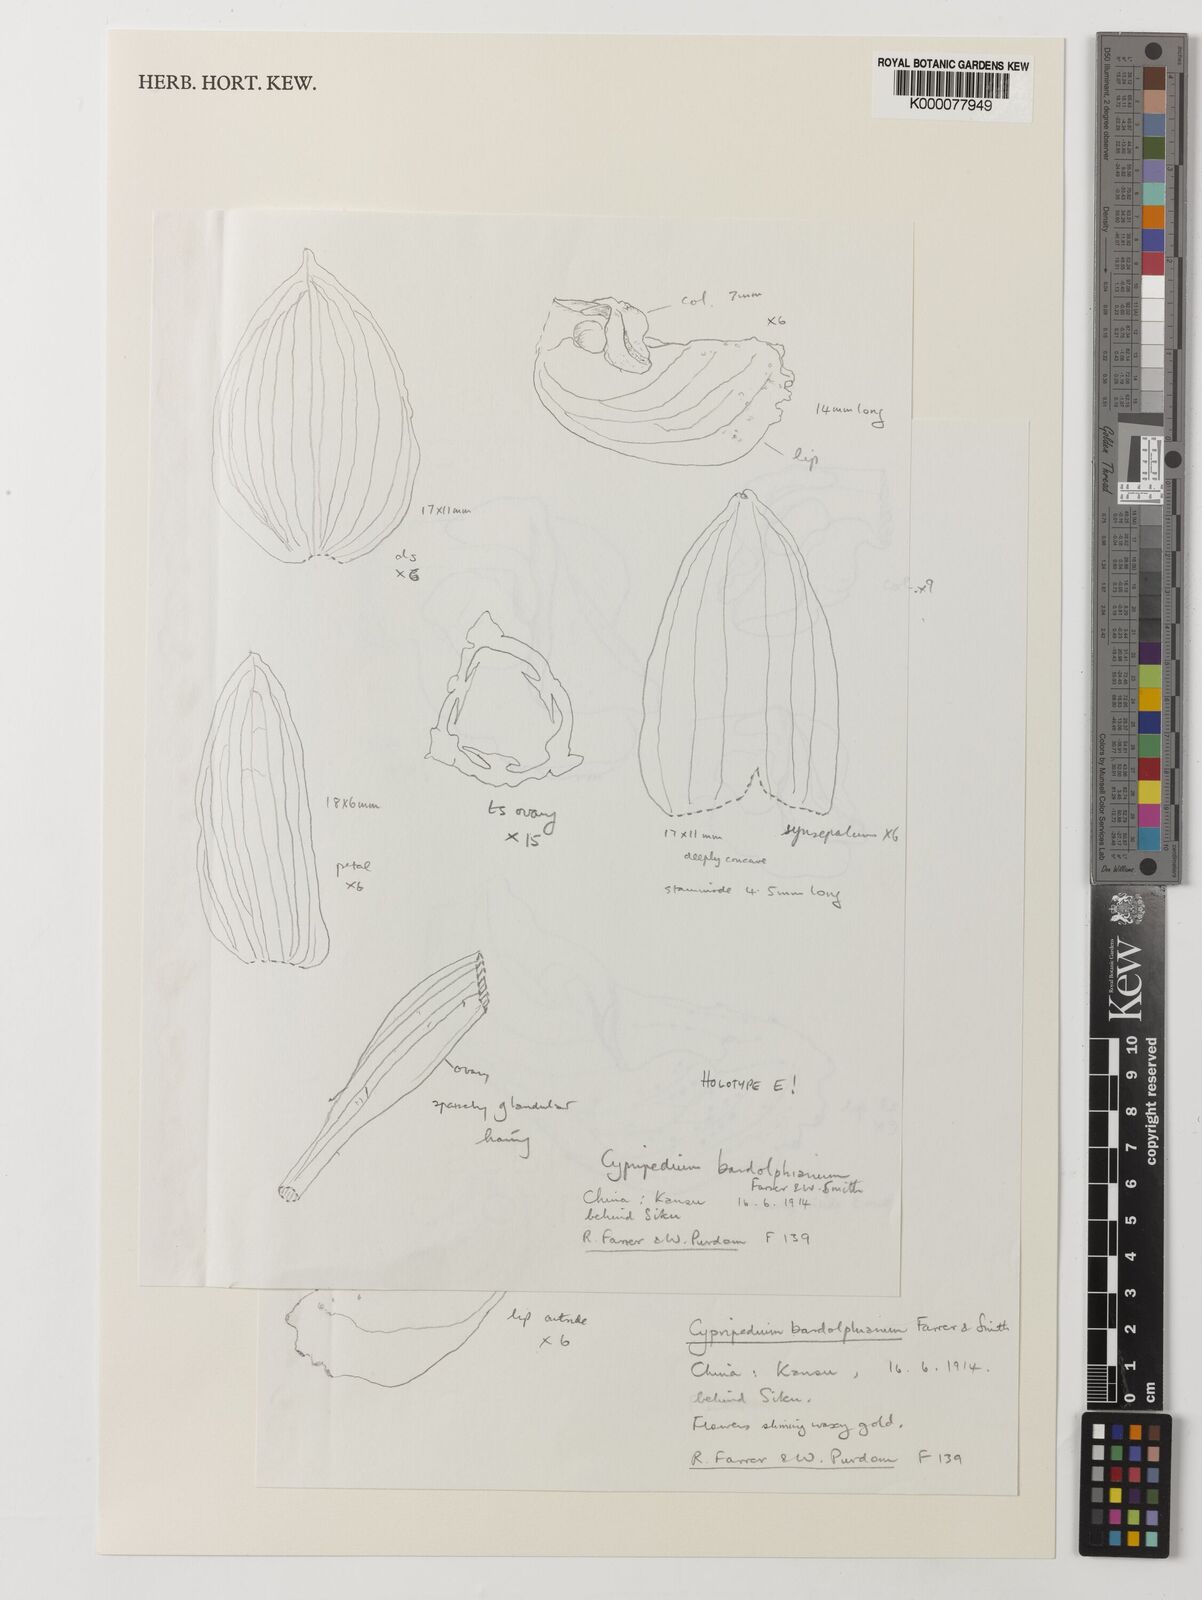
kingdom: Plantae
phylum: Tracheophyta
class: Liliopsida
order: Asparagales
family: Orchidaceae
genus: Cypripedium
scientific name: Cypripedium bardolphianum
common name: Bardolph's cypripedium
